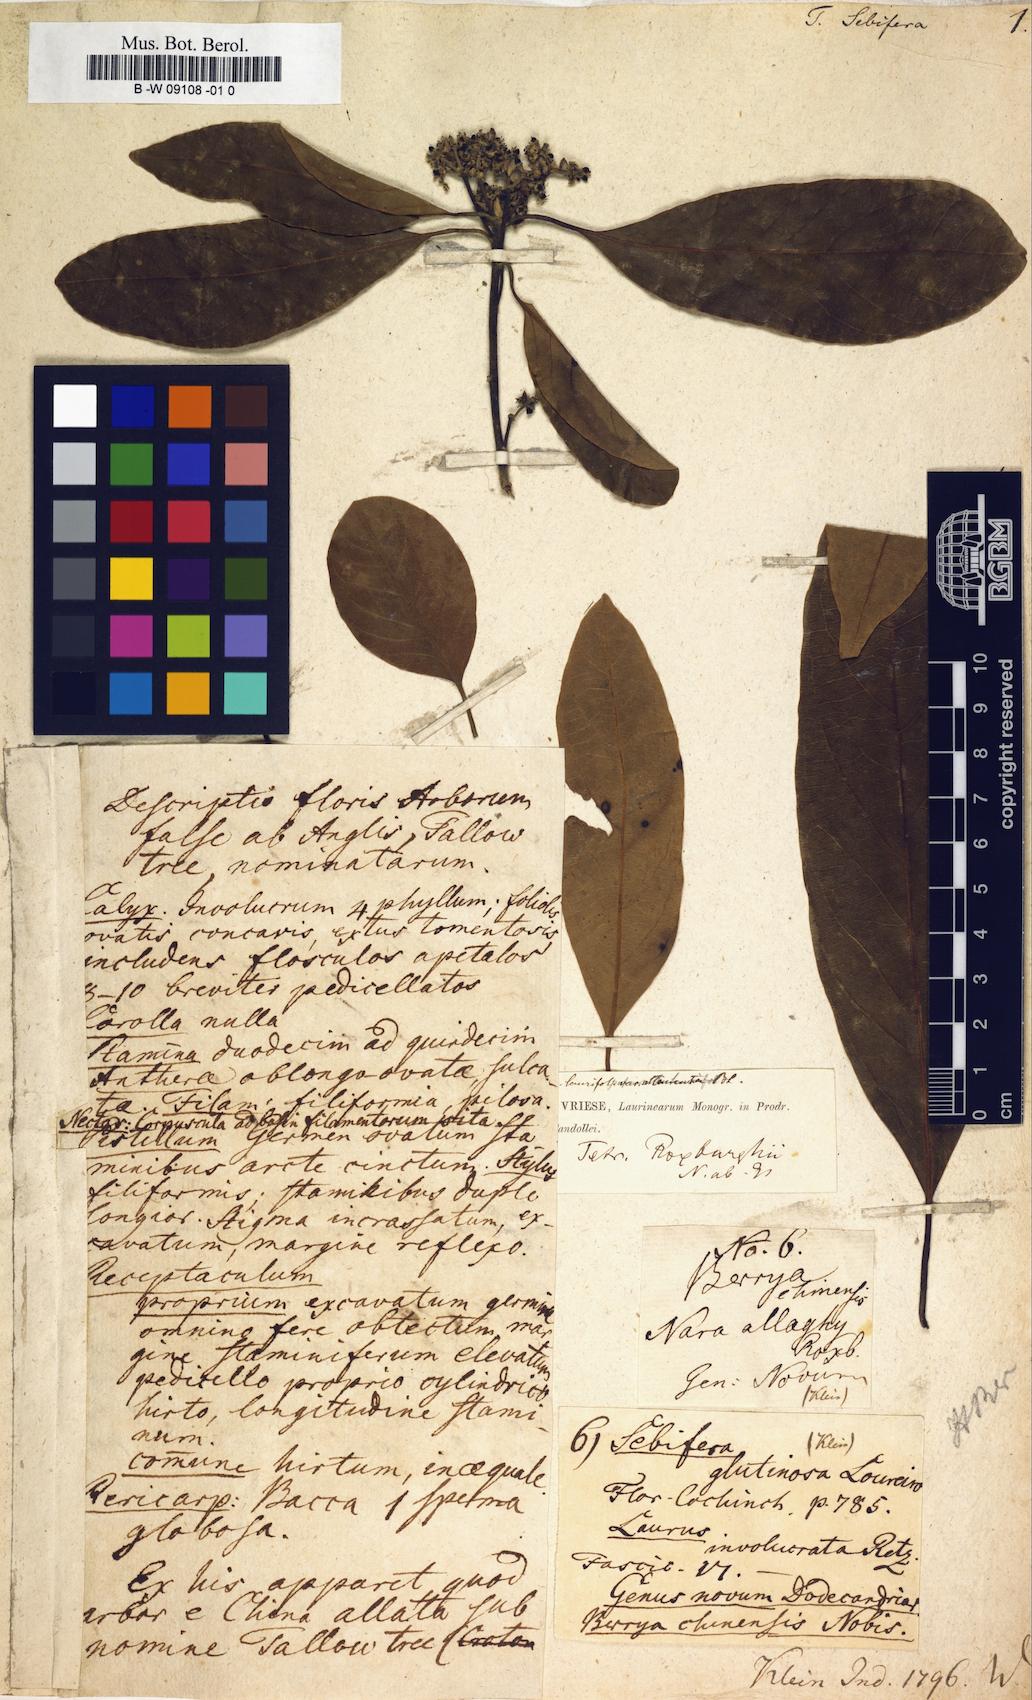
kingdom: Plantae
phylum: Tracheophyta
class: Magnoliopsida
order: Laurales
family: Lauraceae
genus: Litsea
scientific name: Litsea glutinosa
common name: Indian-laurel
